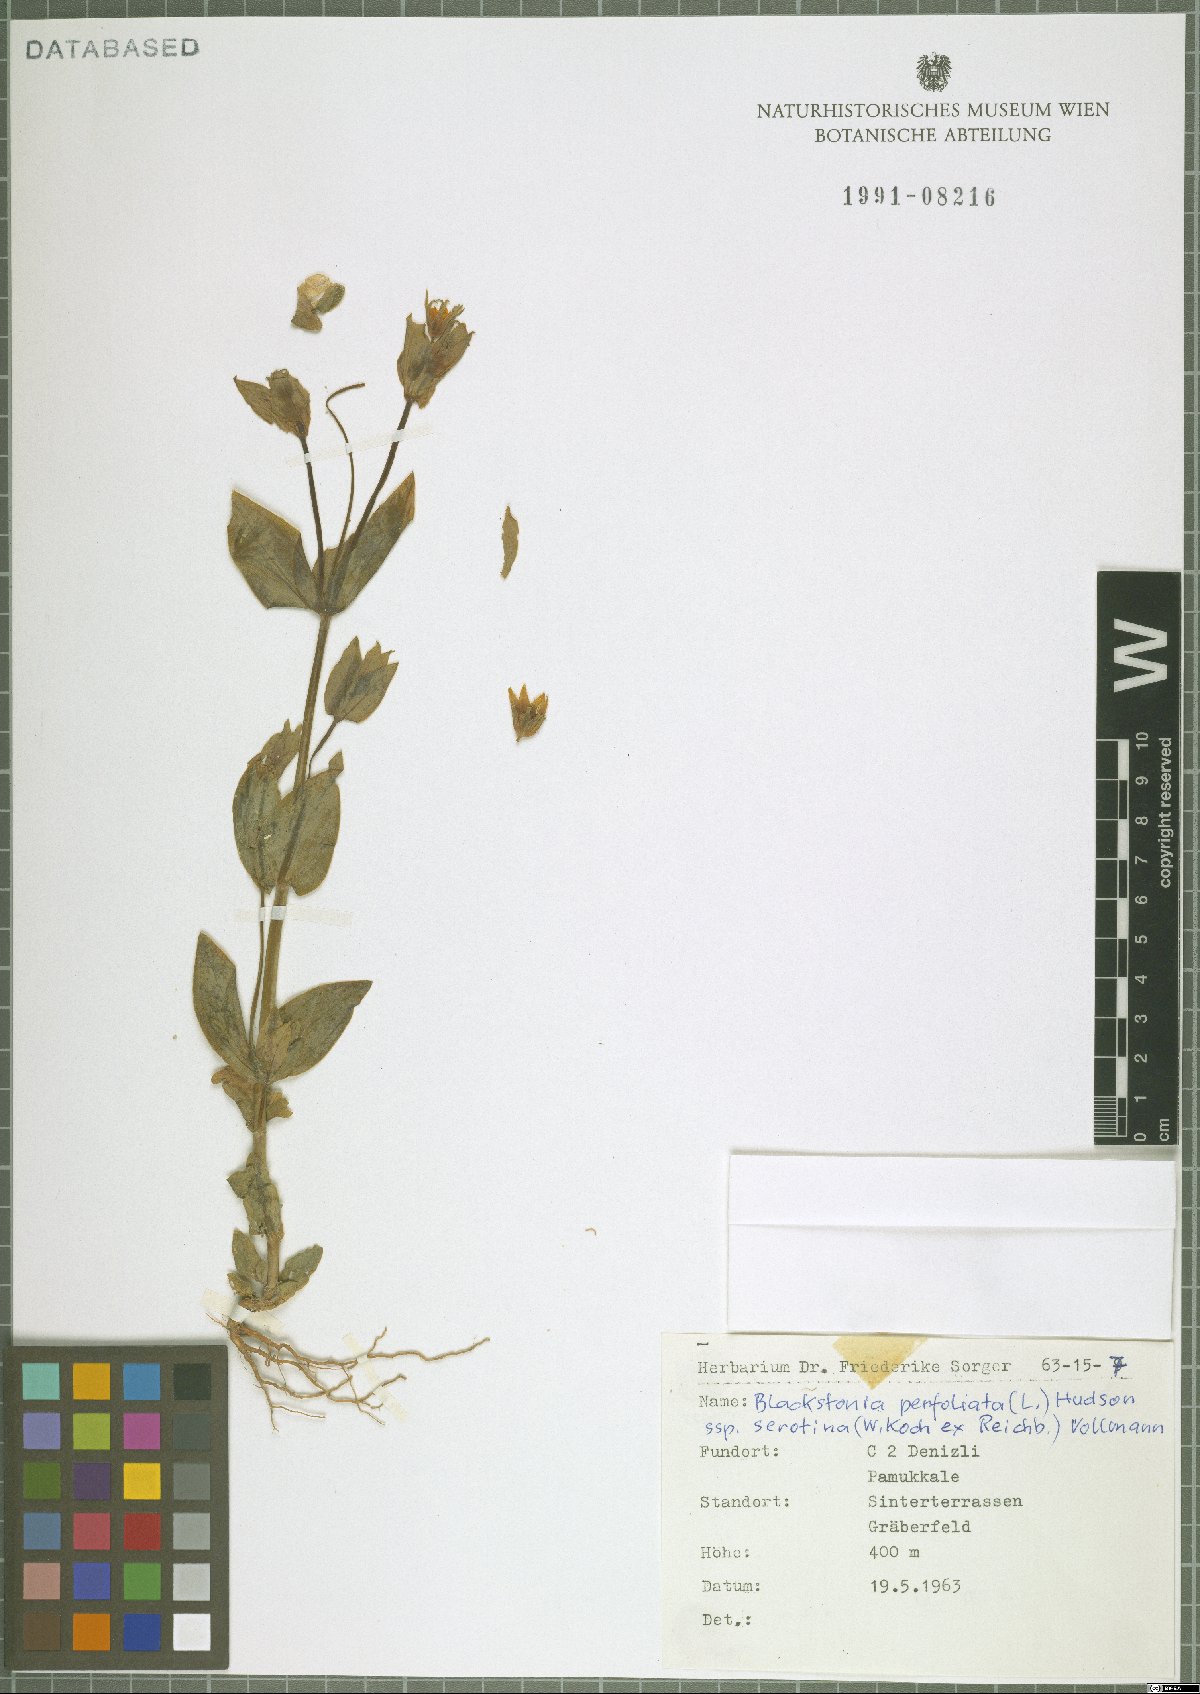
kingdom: Plantae
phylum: Tracheophyta
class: Magnoliopsida
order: Gentianales
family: Gentianaceae
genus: Blackstonia
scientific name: Blackstonia acuminata
